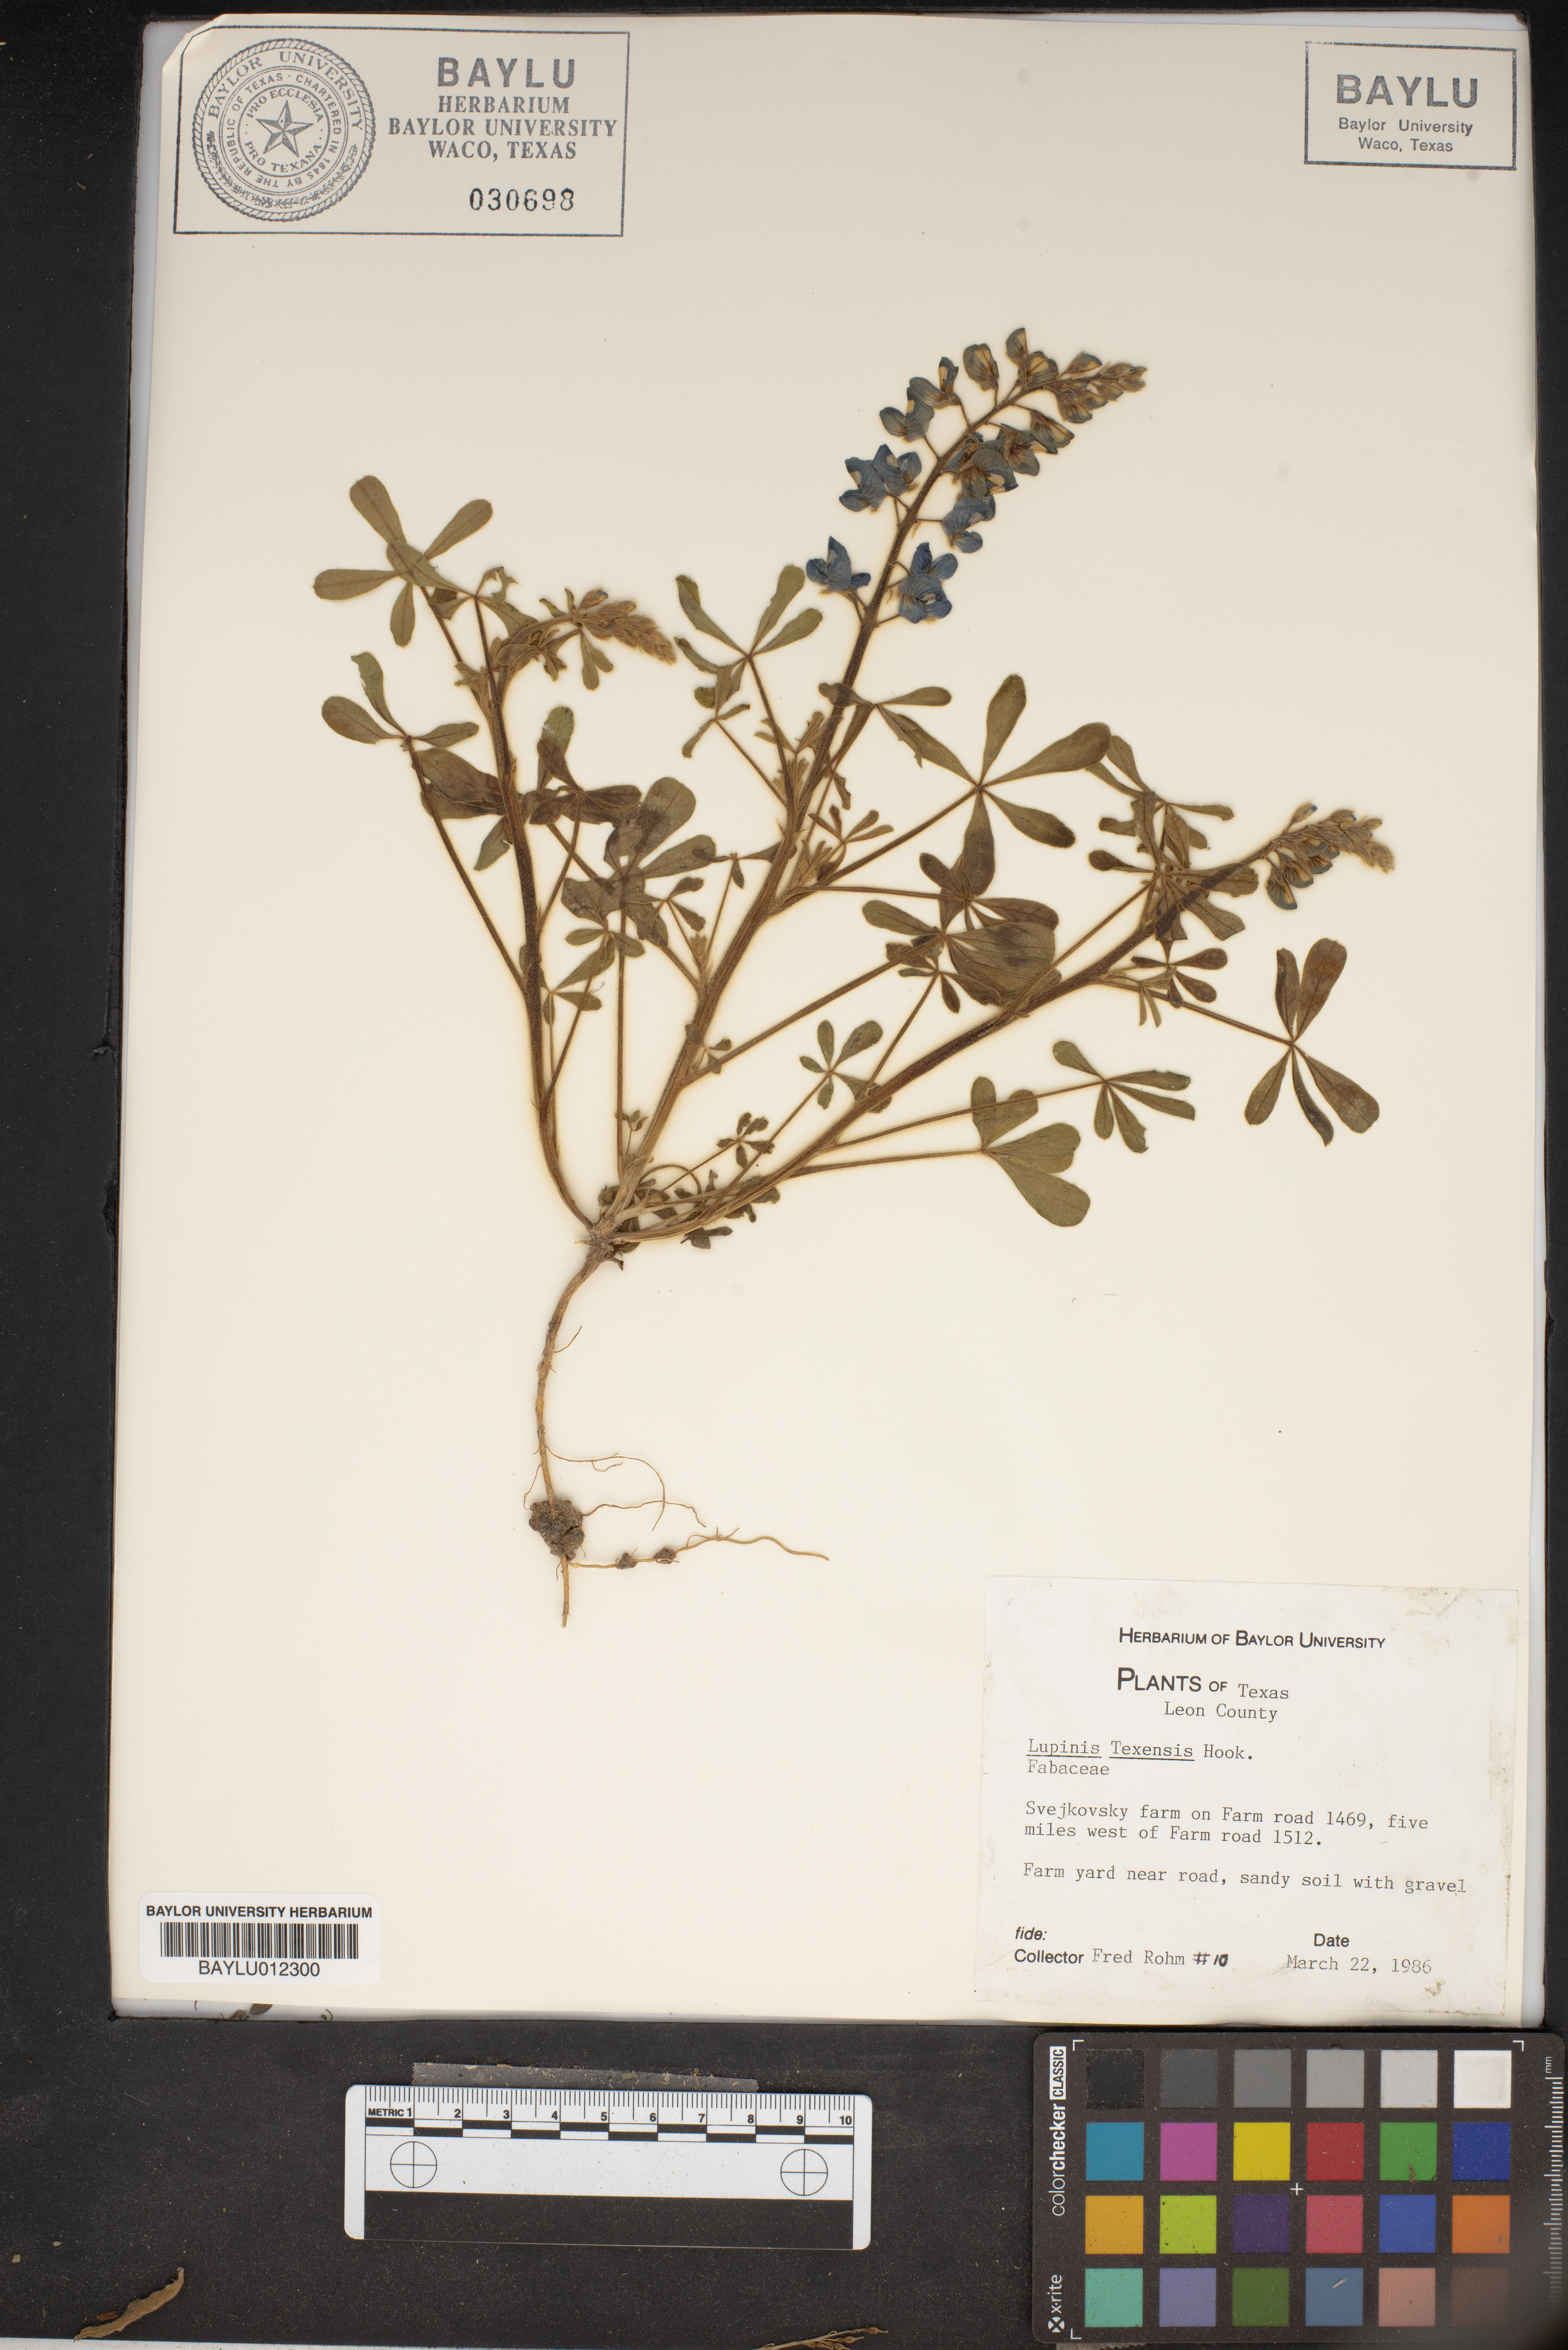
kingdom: Plantae
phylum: Tracheophyta
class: Magnoliopsida
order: Fabales
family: Fabaceae
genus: Lupinus
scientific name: Lupinus texensis
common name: Texas bluebonnet
